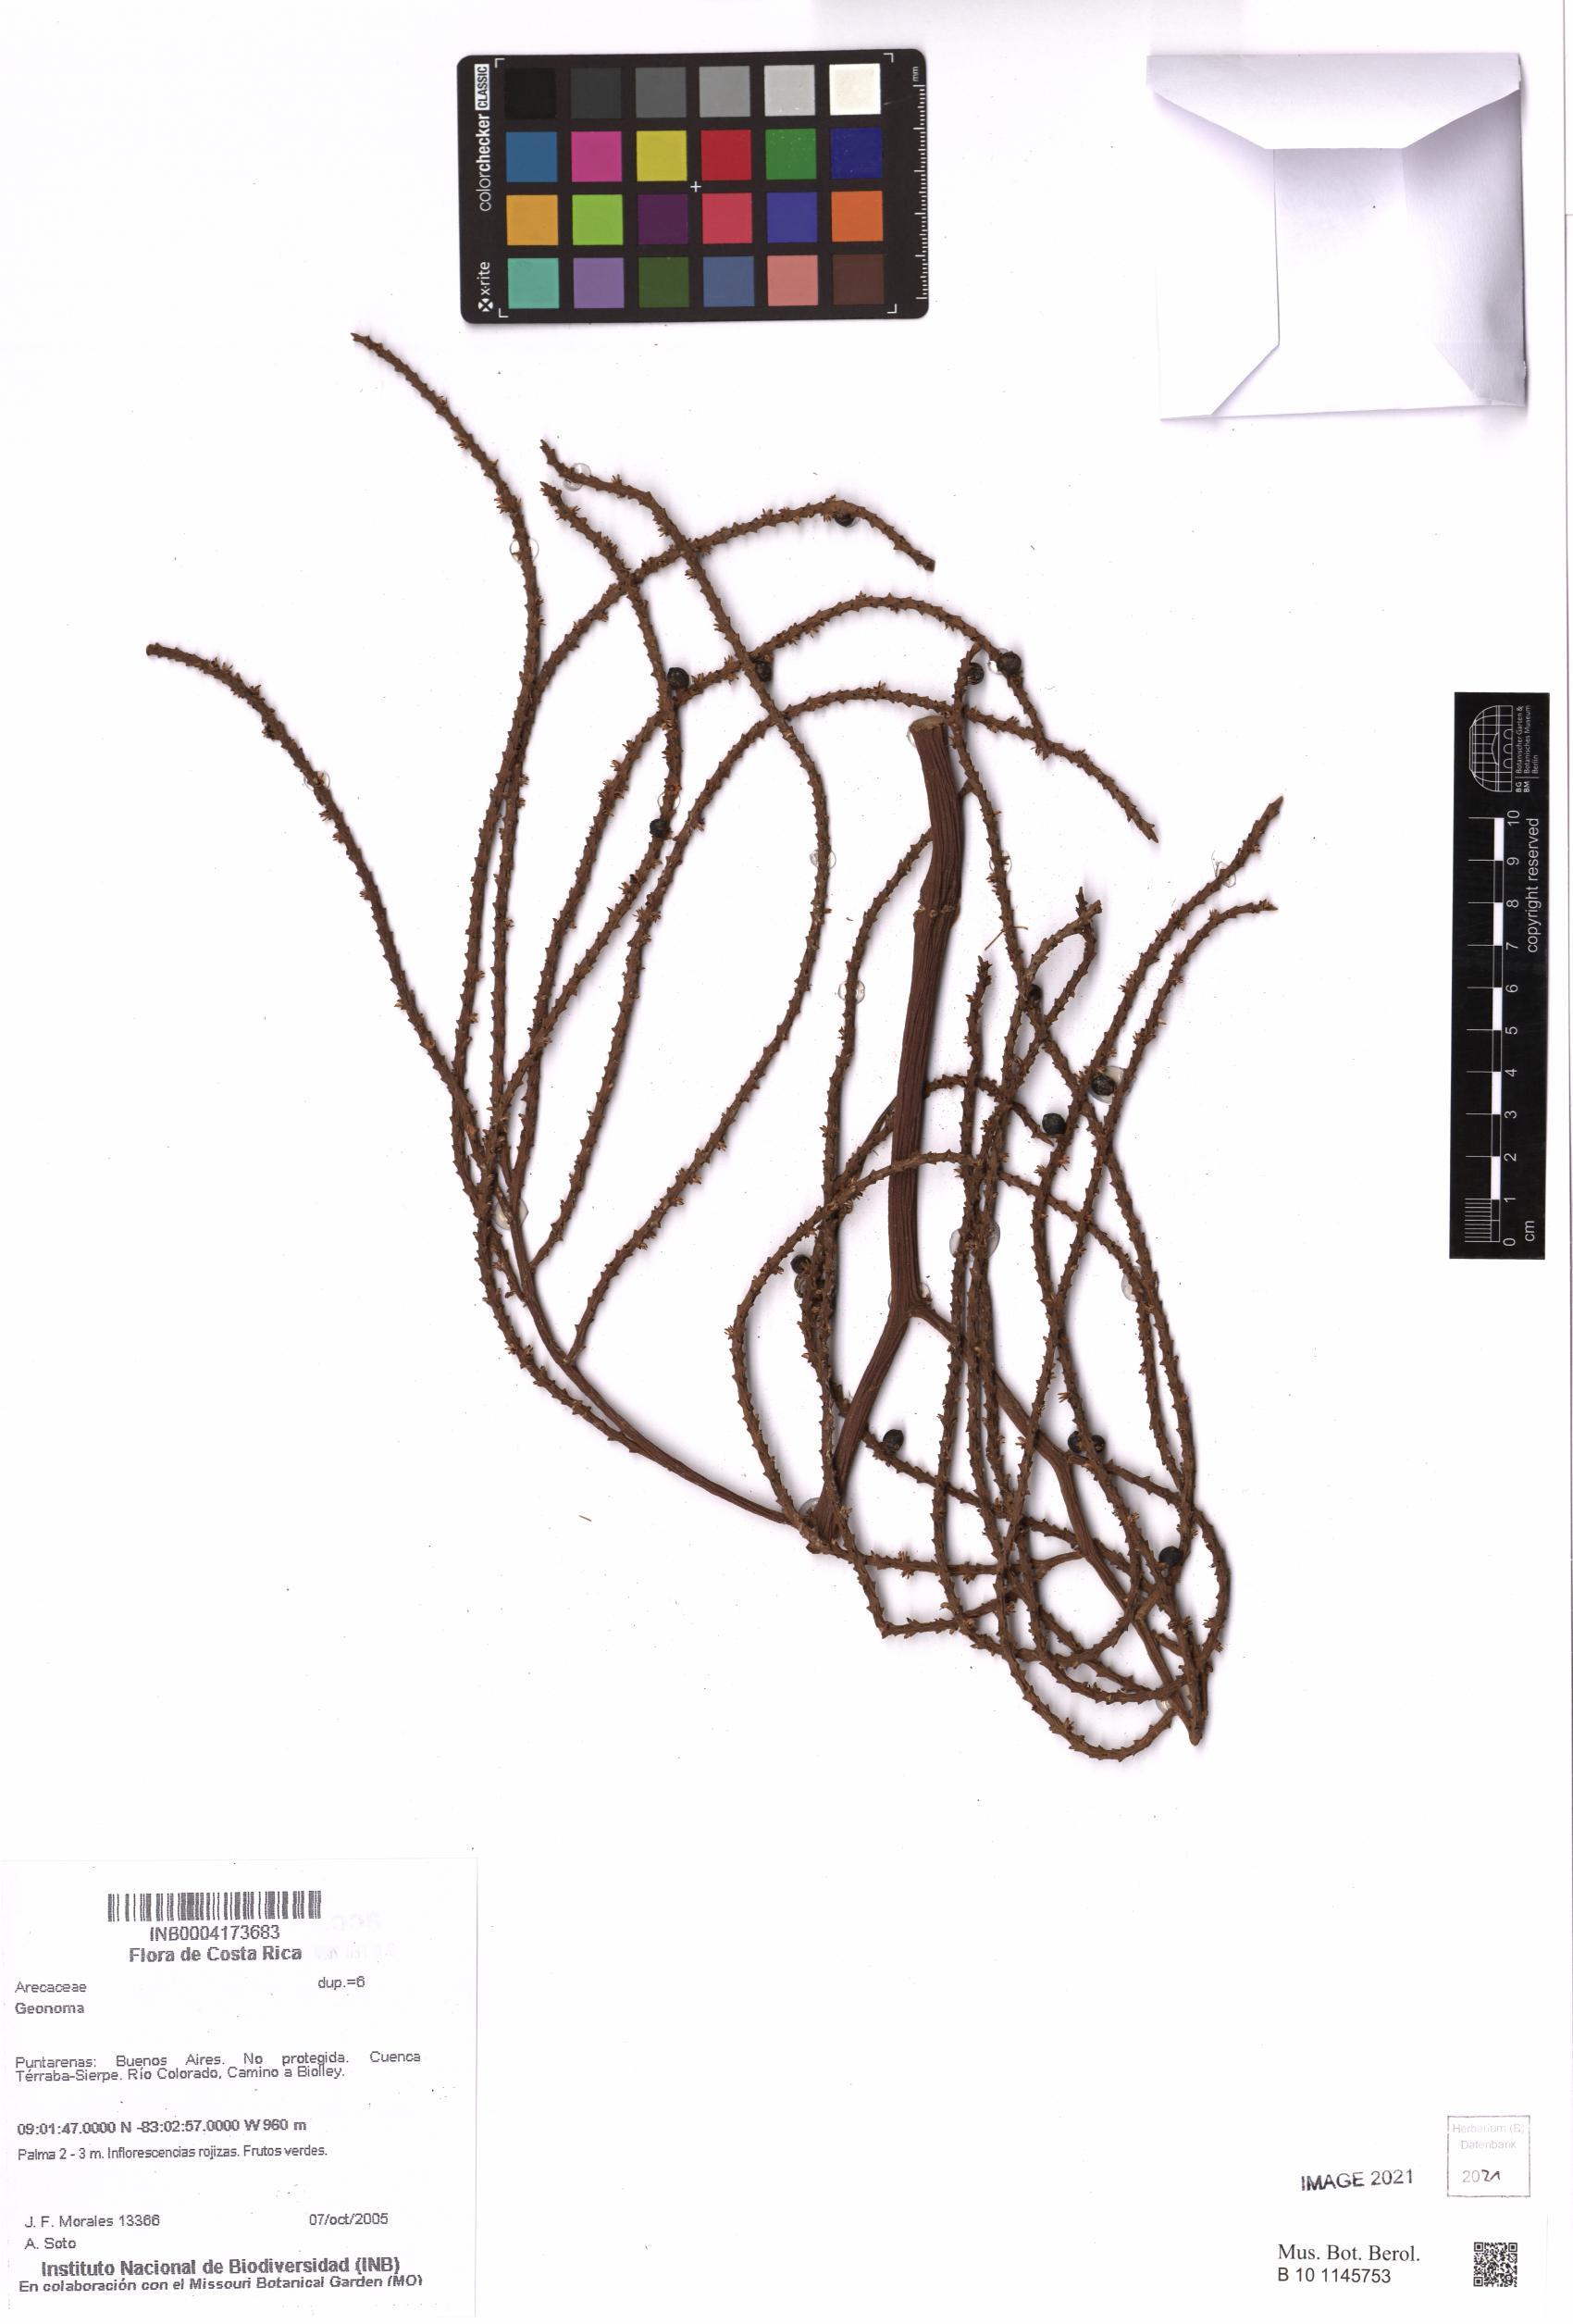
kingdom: Plantae
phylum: Tracheophyta
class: Liliopsida
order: Arecales
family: Arecaceae
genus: Geonoma
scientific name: Geonoma
